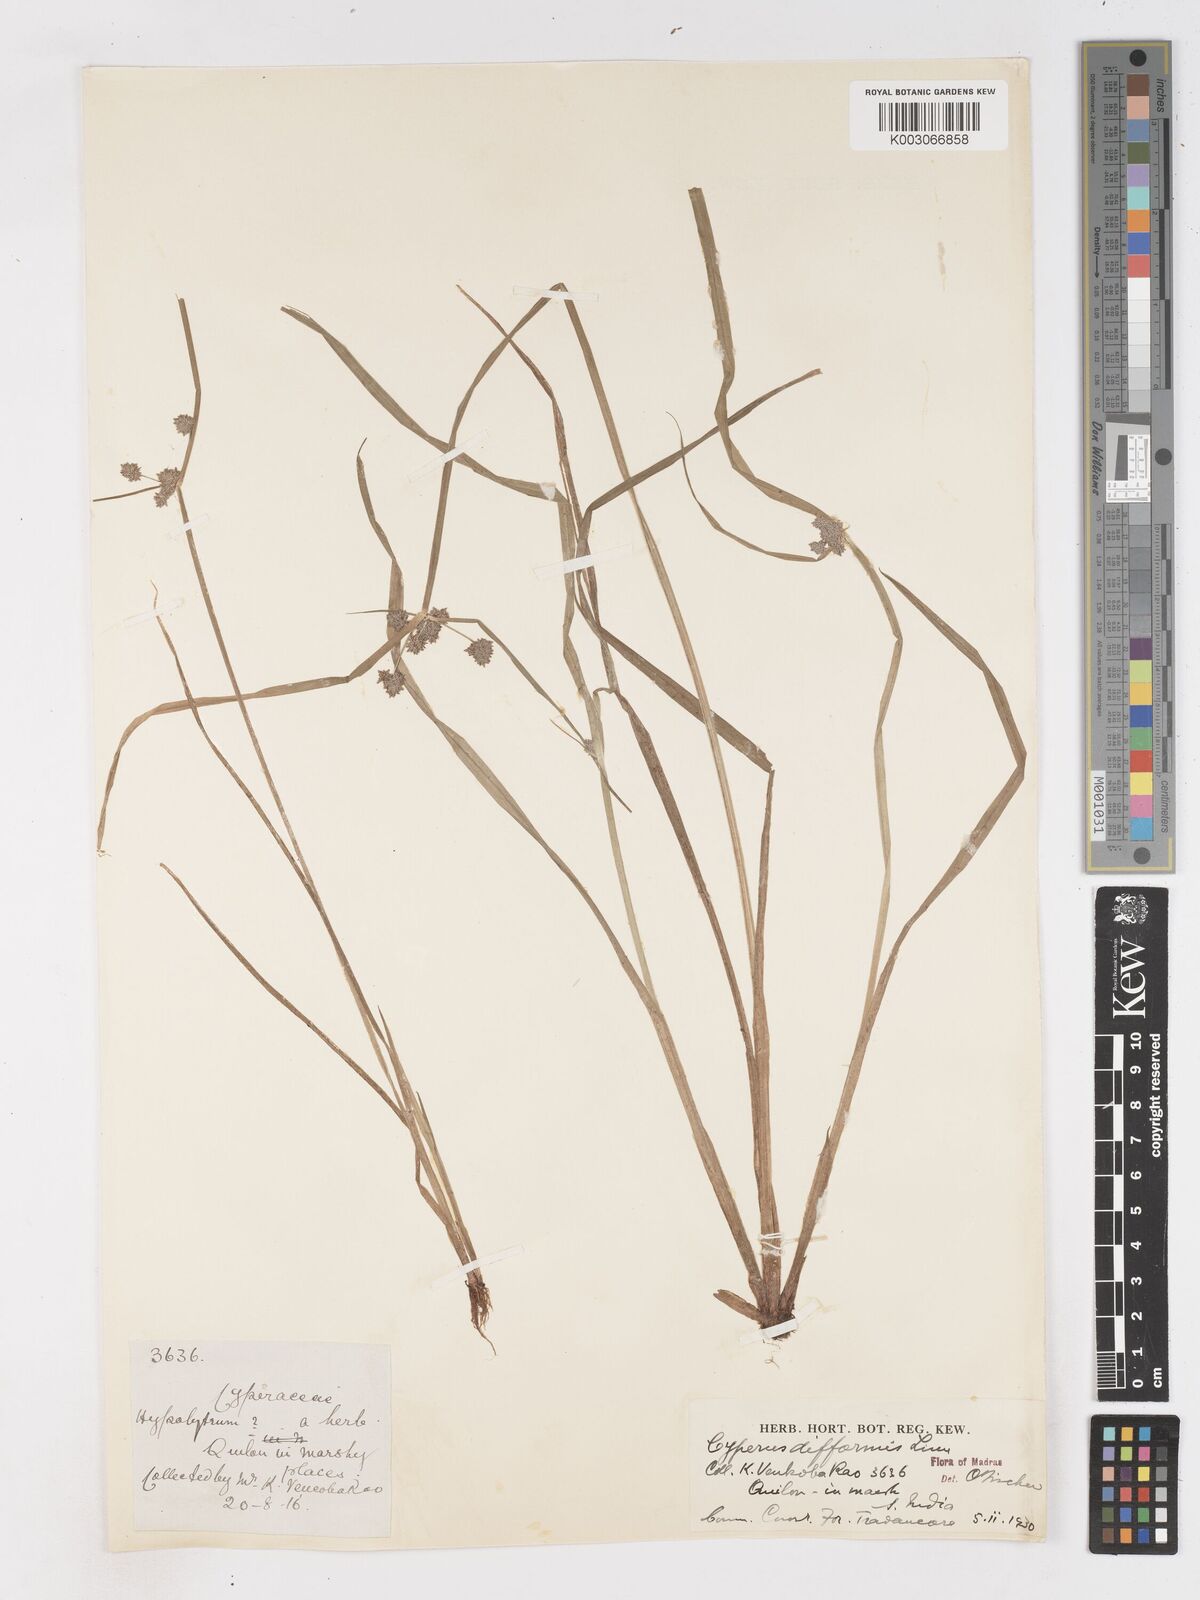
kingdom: Plantae
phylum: Tracheophyta
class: Liliopsida
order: Poales
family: Cyperaceae
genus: Cyperus
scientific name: Cyperus difformis
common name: Variable flatsedge
